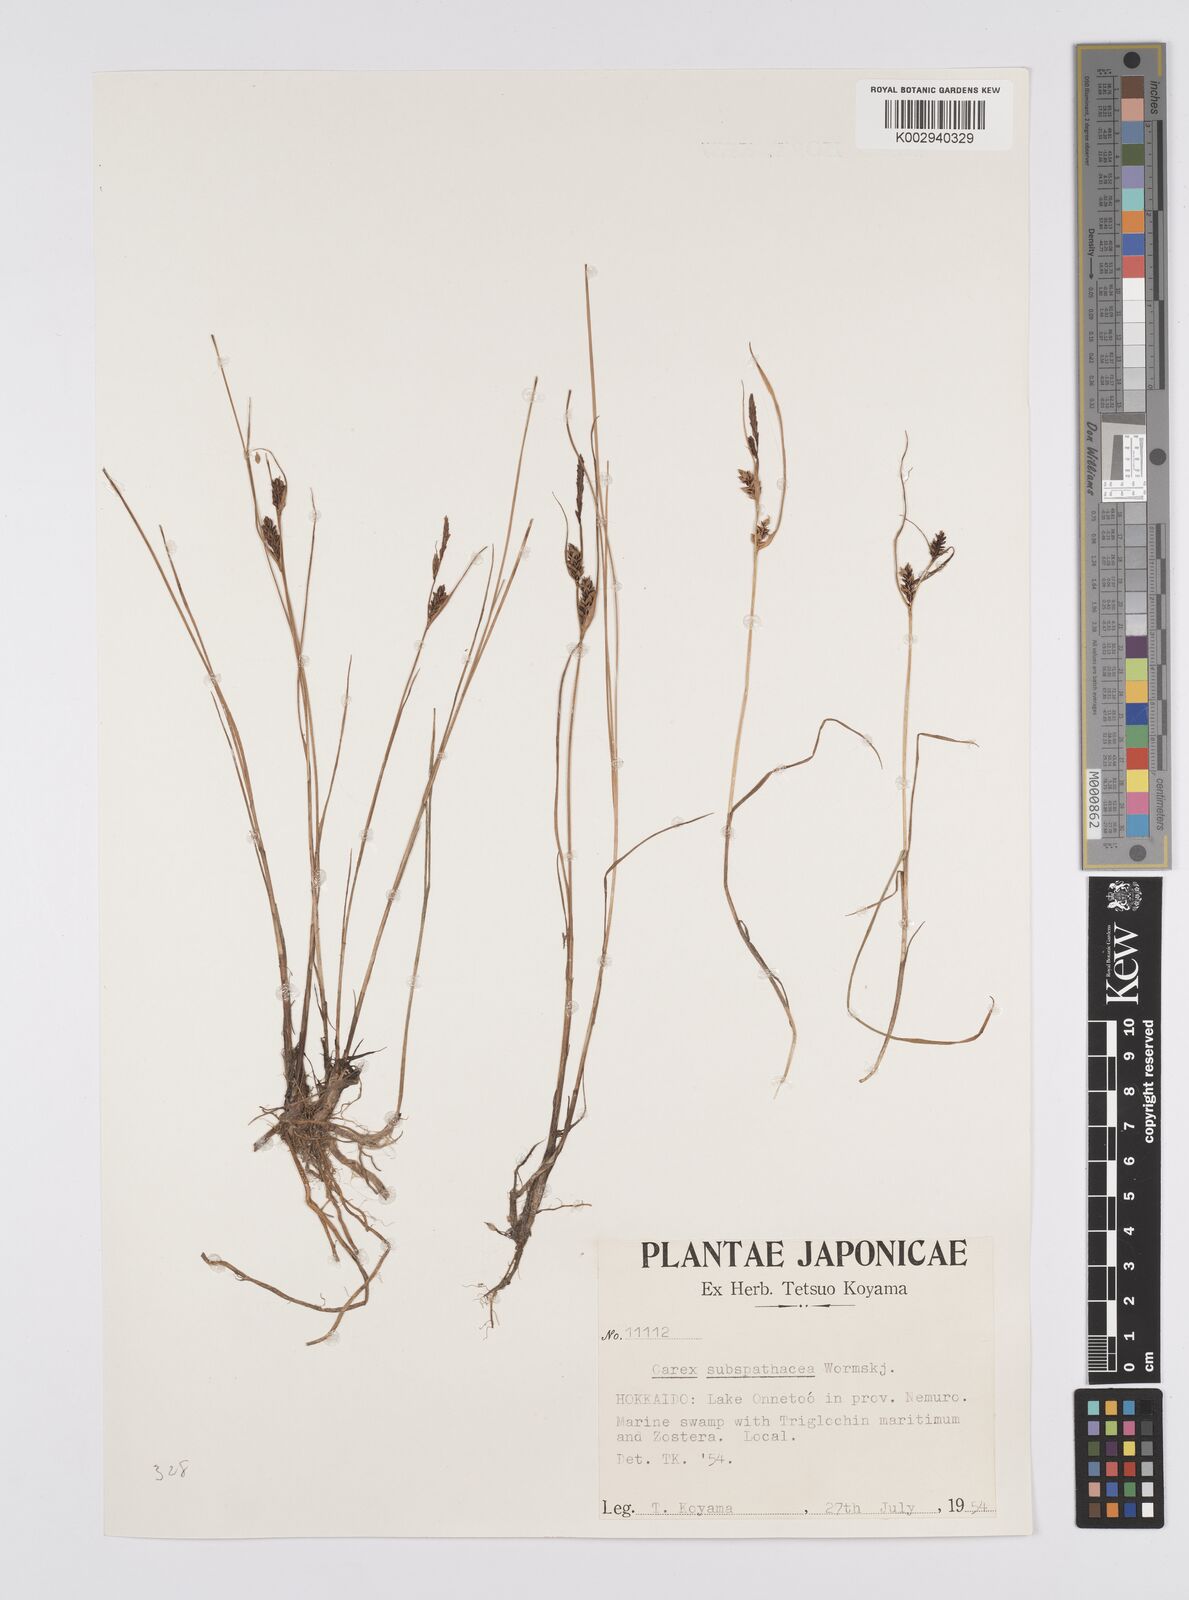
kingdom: Plantae
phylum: Tracheophyta
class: Liliopsida
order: Poales
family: Cyperaceae
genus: Carex
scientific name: Carex subspathacea
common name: Hoppner's sedge
